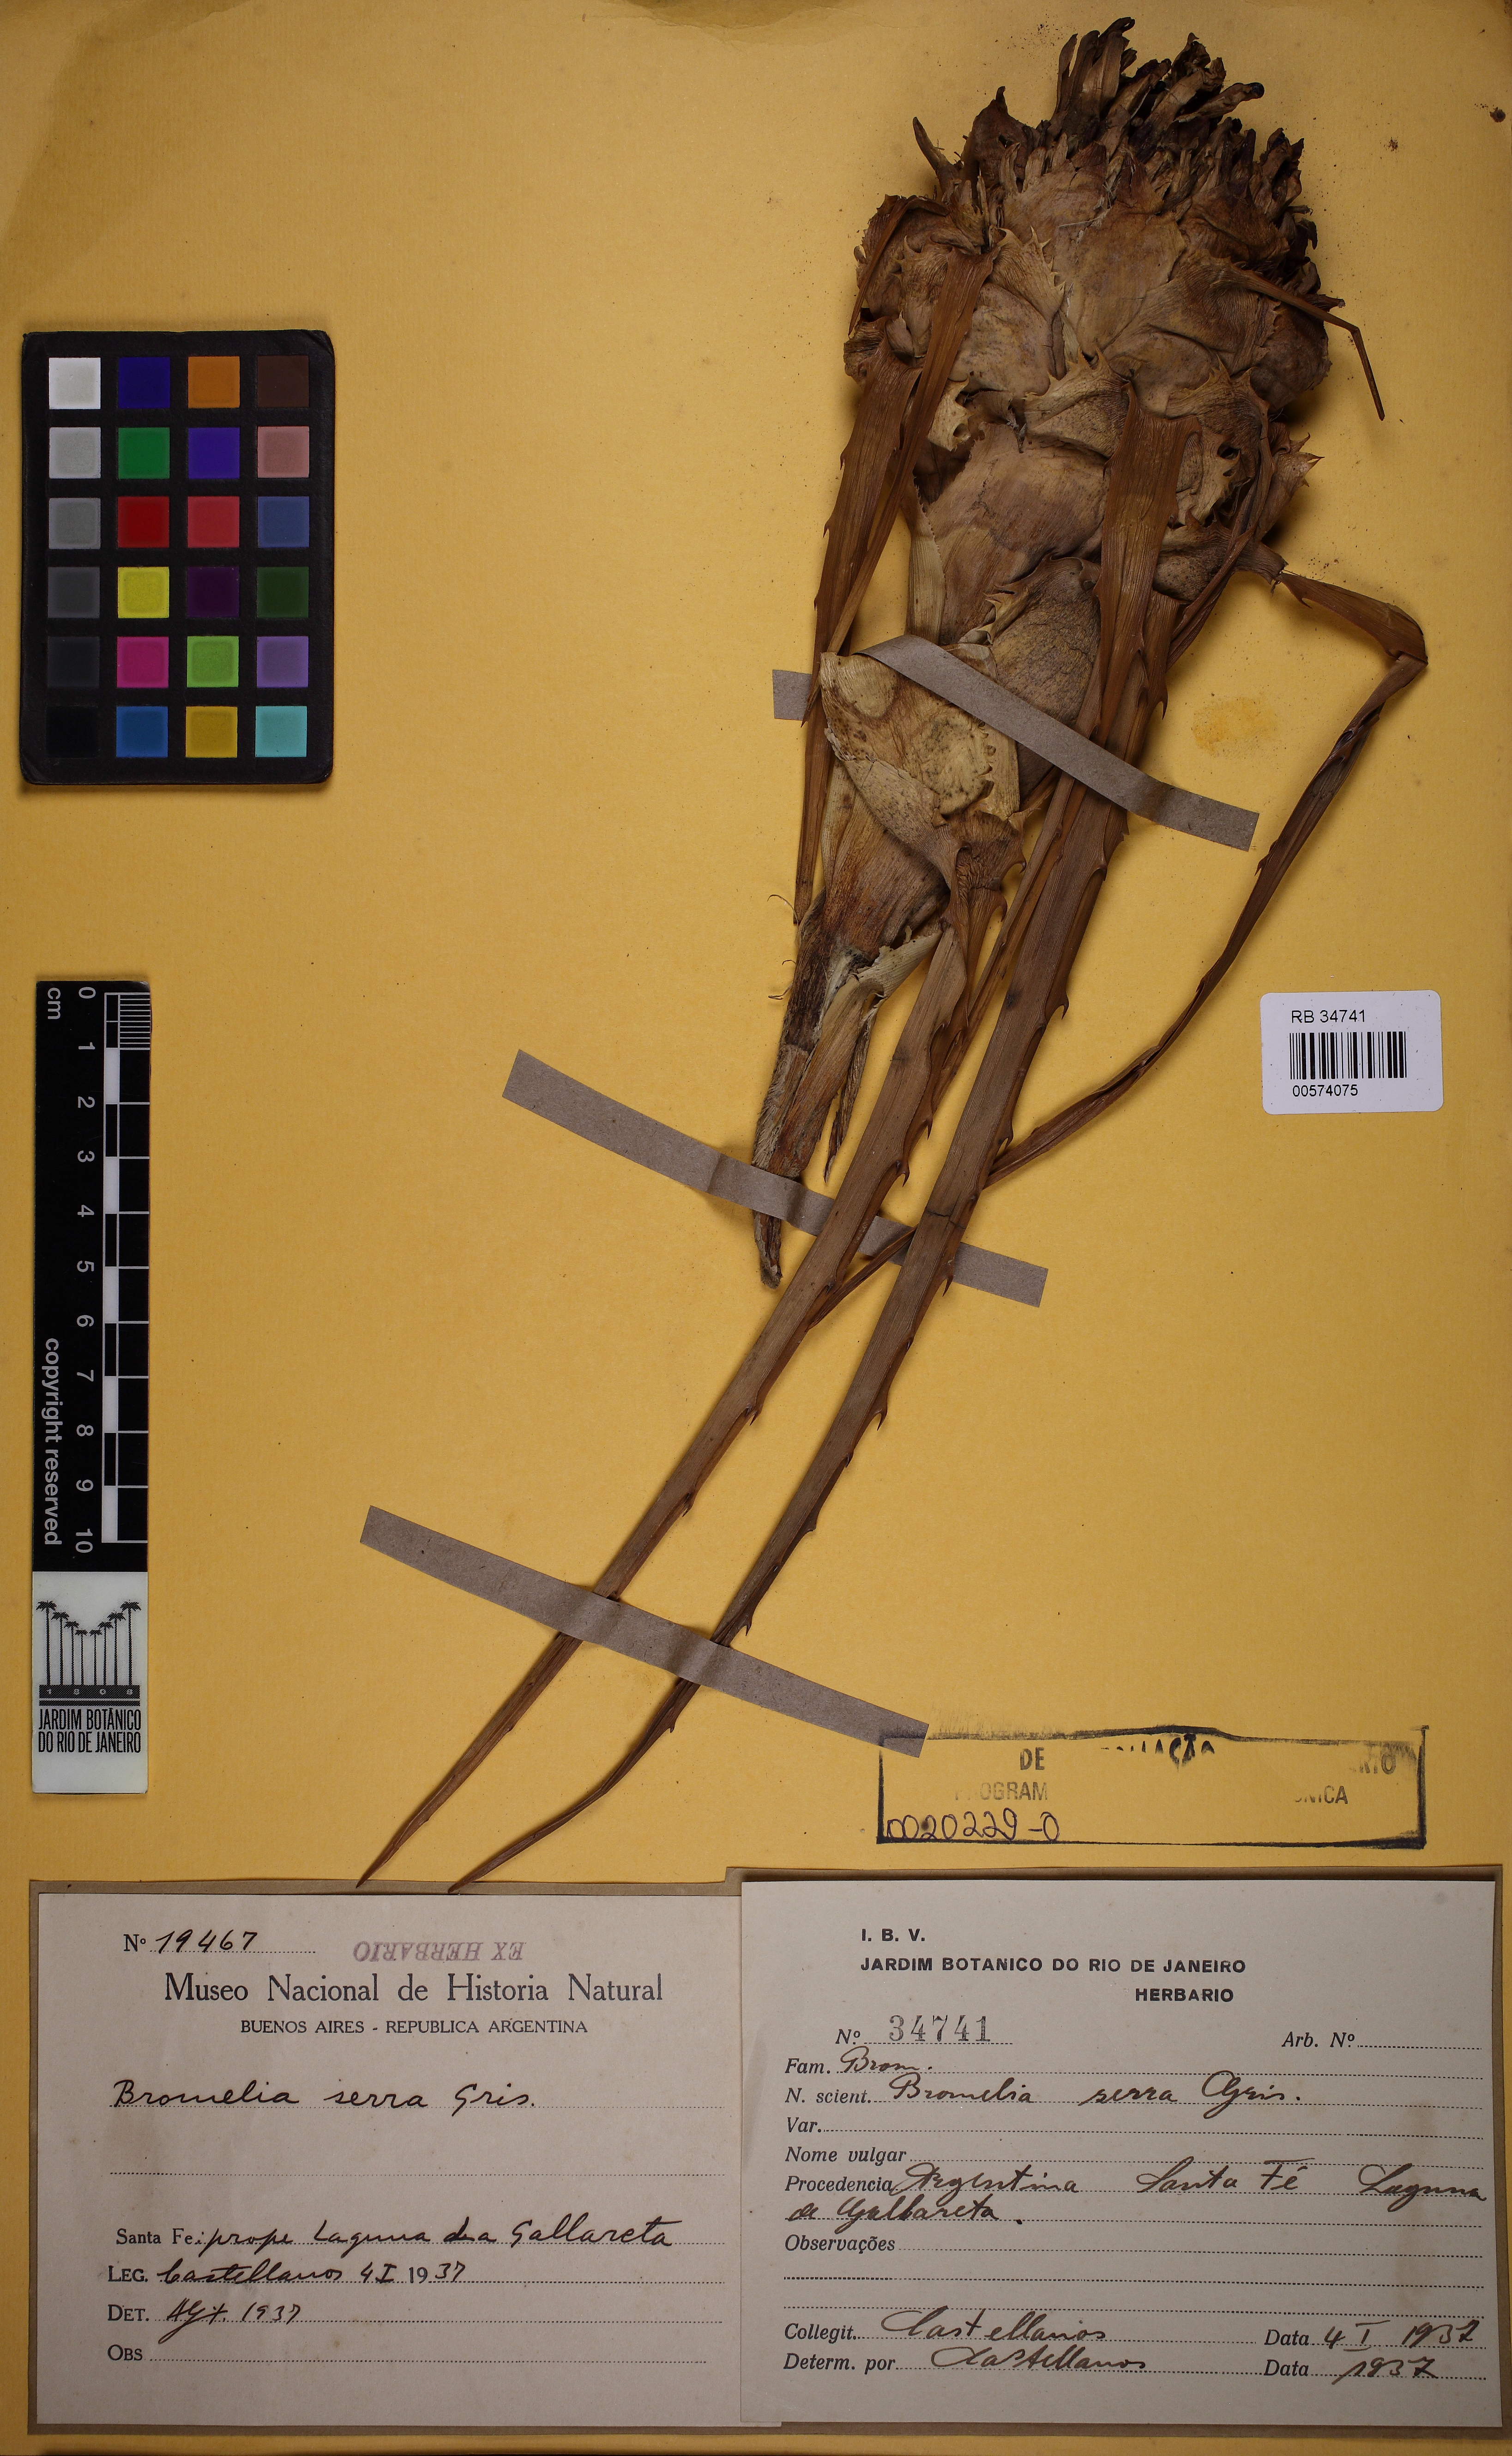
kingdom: Plantae
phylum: Tracheophyta
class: Liliopsida
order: Poales
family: Bromeliaceae
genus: Bromelia
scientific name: Bromelia serra
